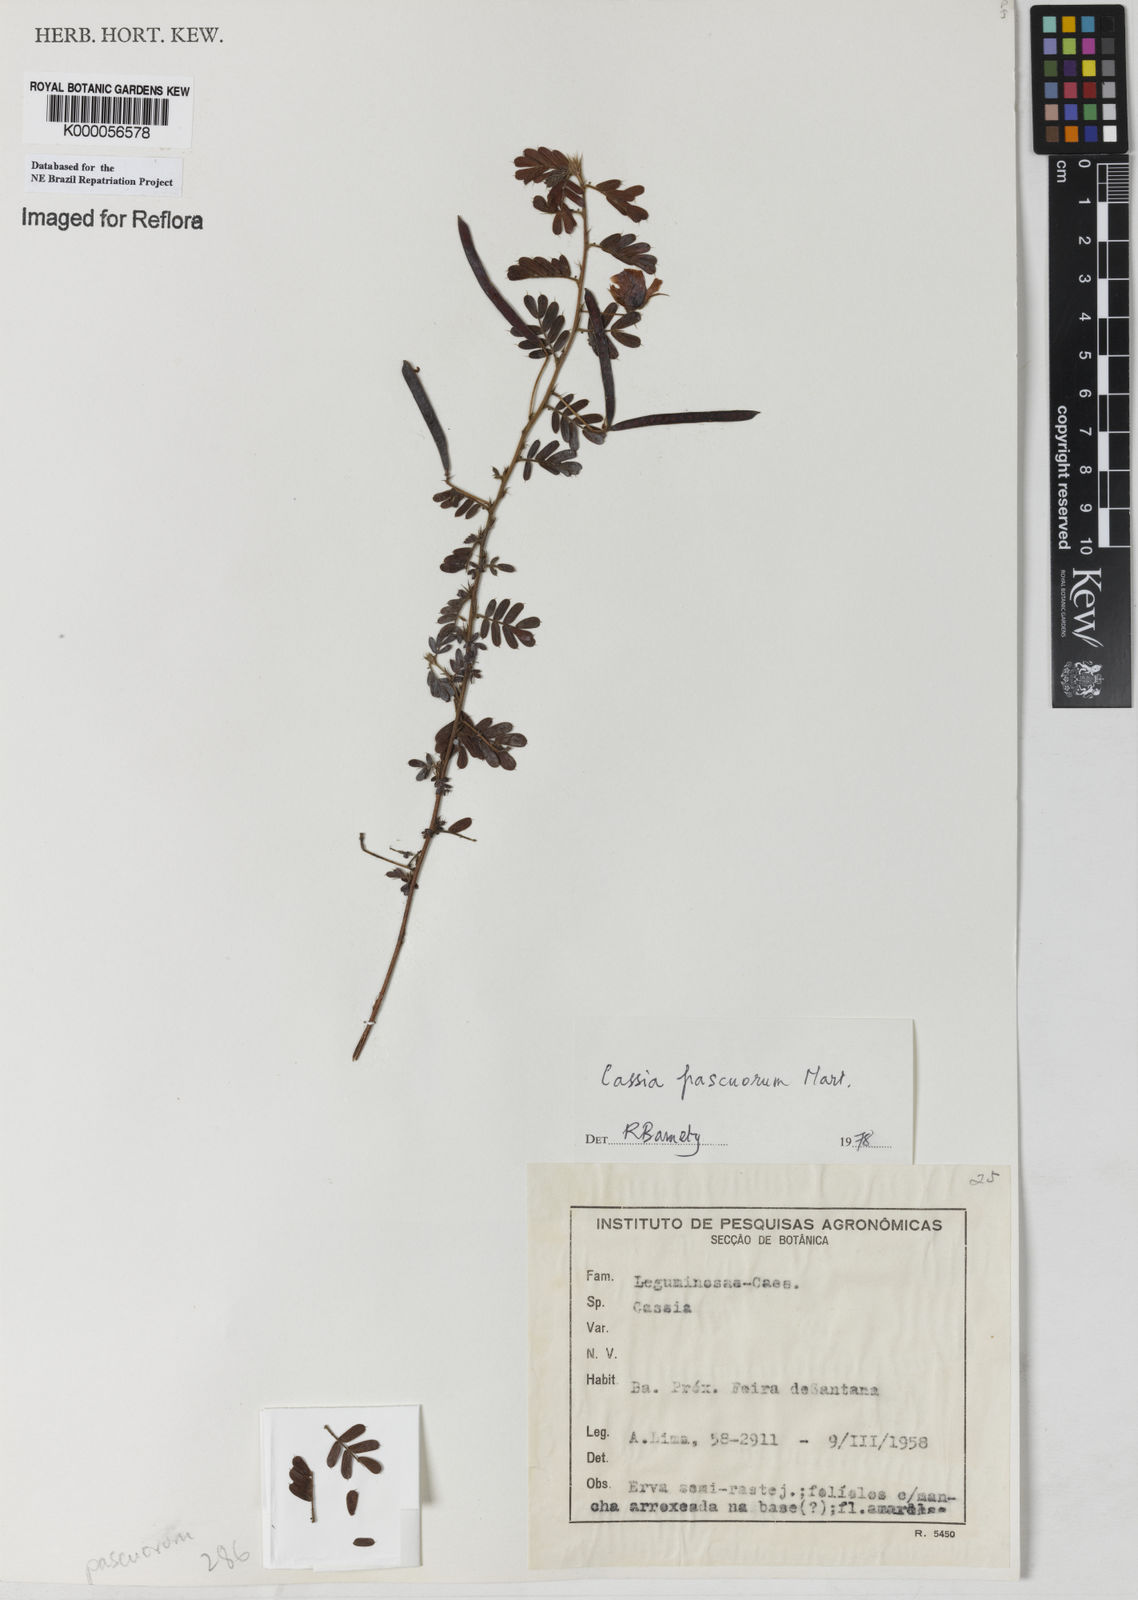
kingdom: Plantae
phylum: Tracheophyta
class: Magnoliopsida
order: Fabales
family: Fabaceae
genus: Chamaecrista
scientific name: Chamaecrista pascuorum
